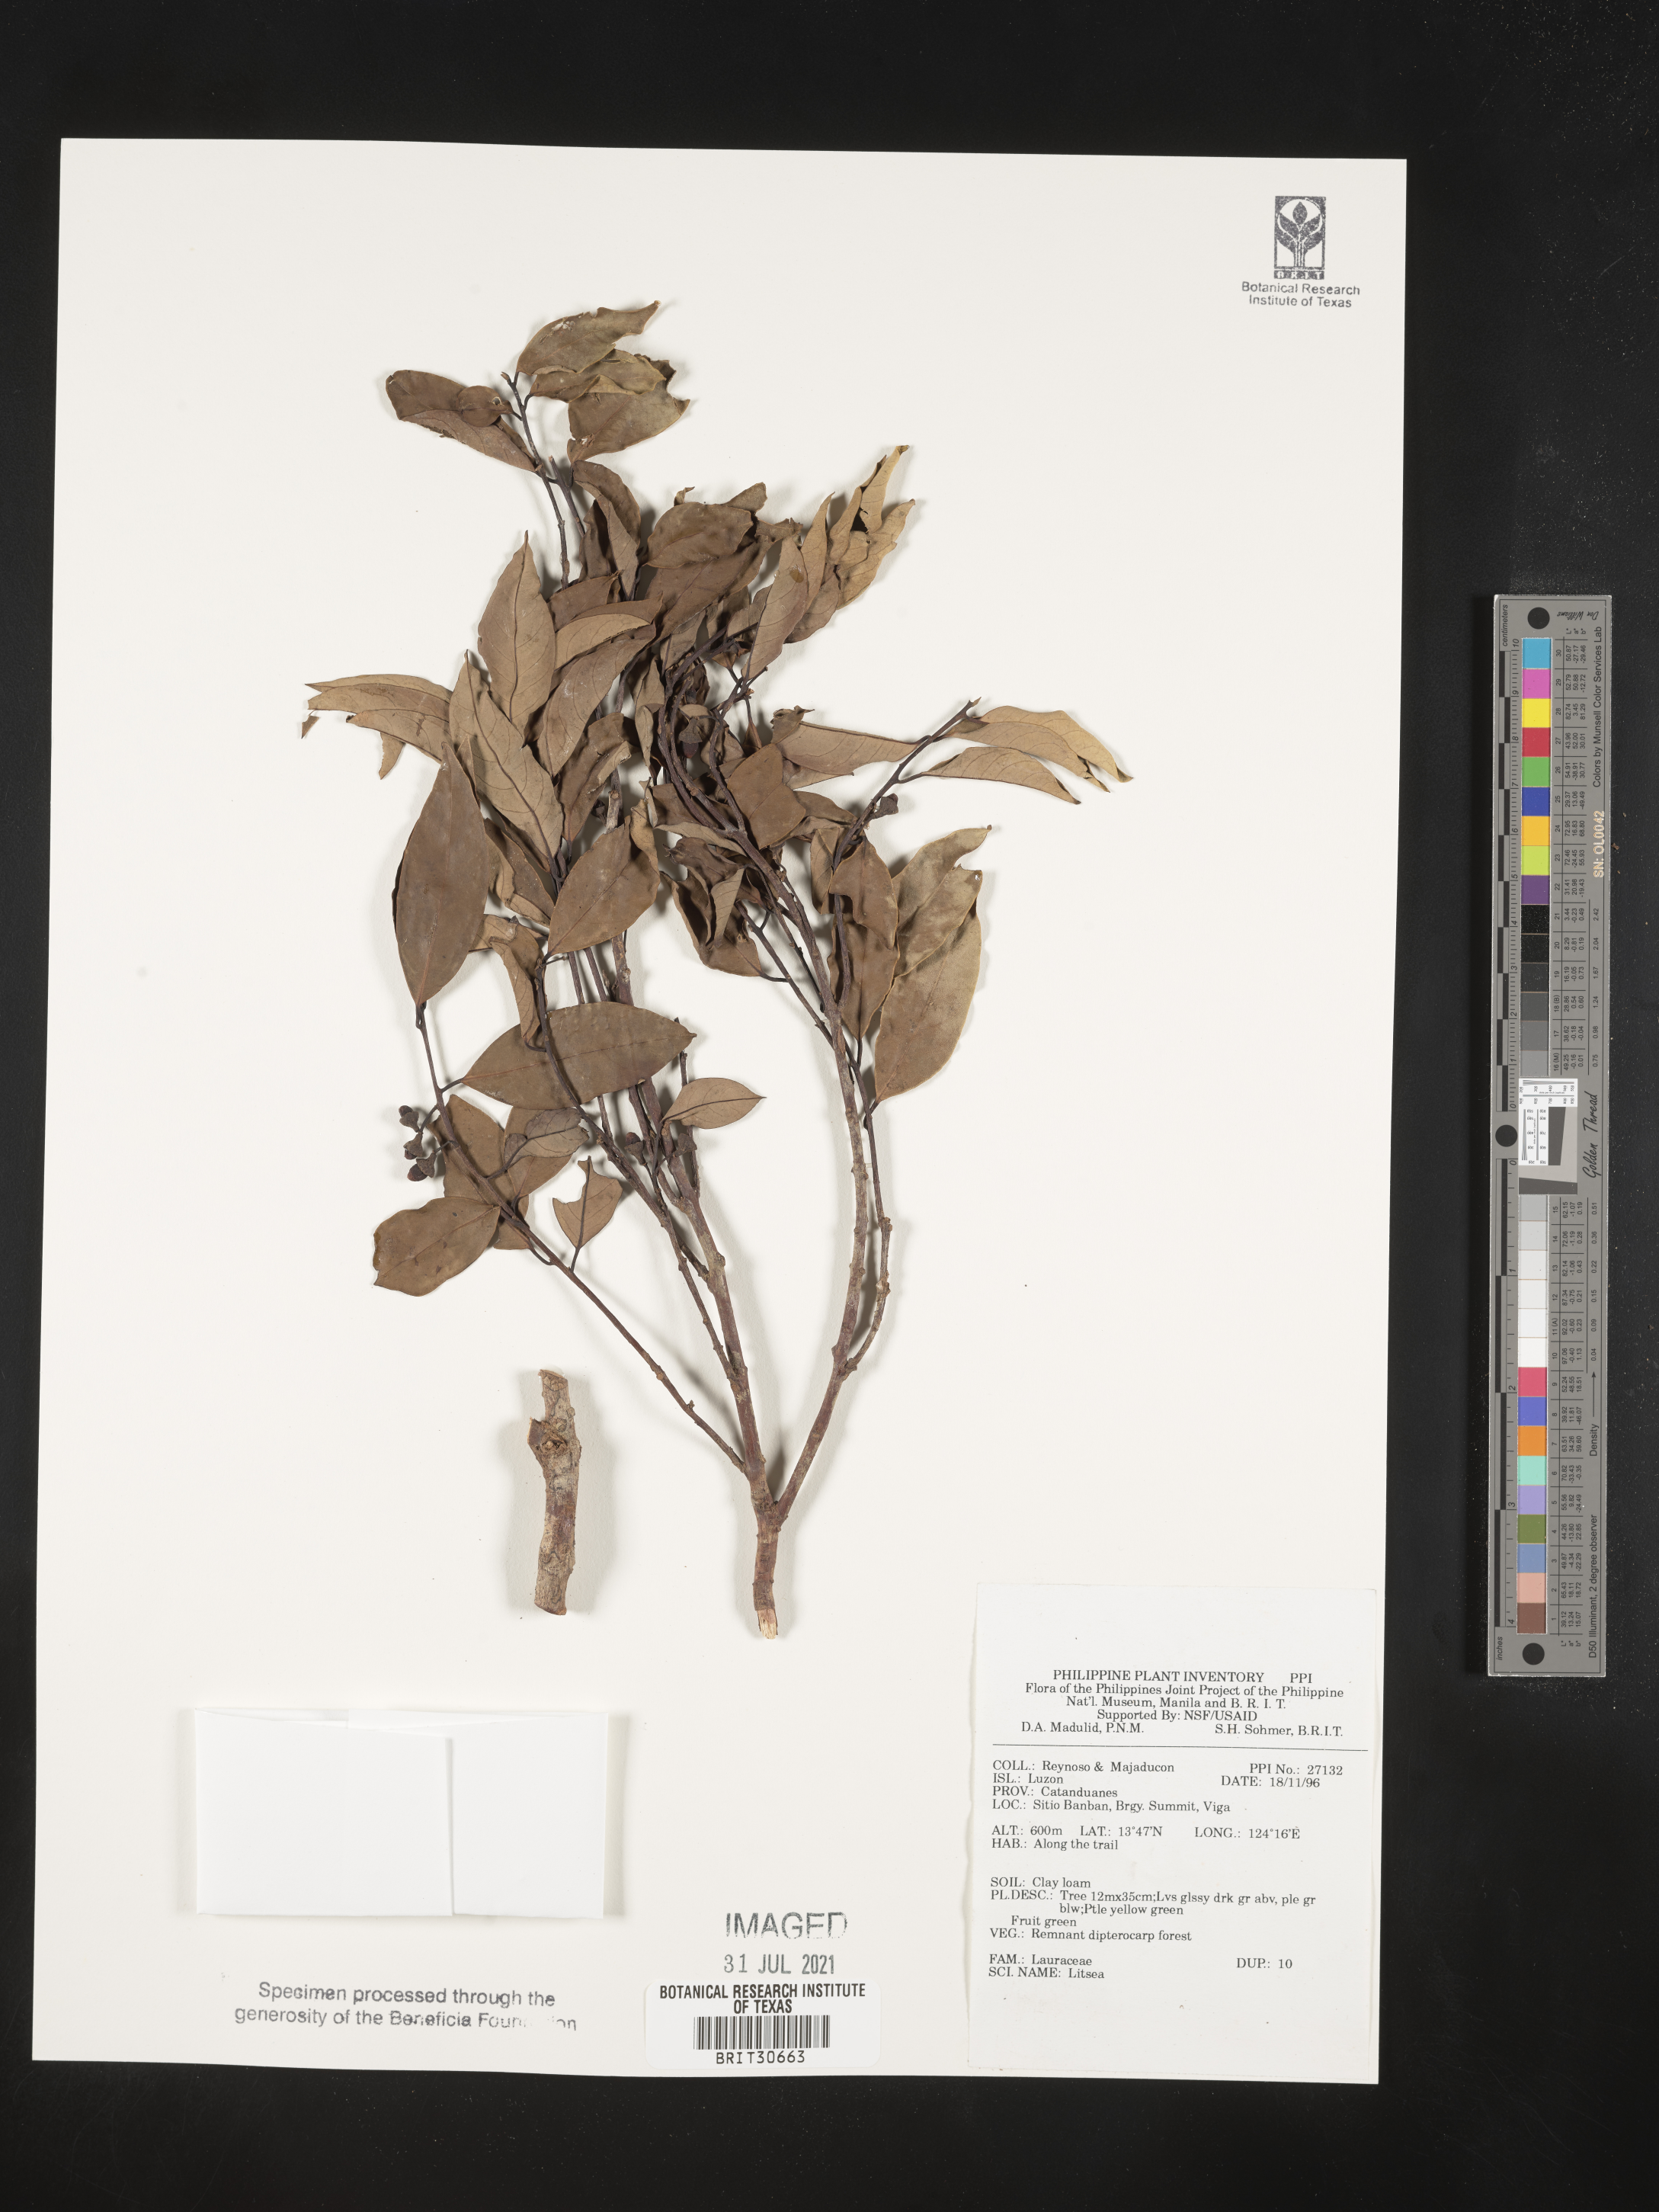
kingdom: Plantae
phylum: Tracheophyta
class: Magnoliopsida
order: Laurales
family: Lauraceae
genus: Litsea
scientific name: Litsea
